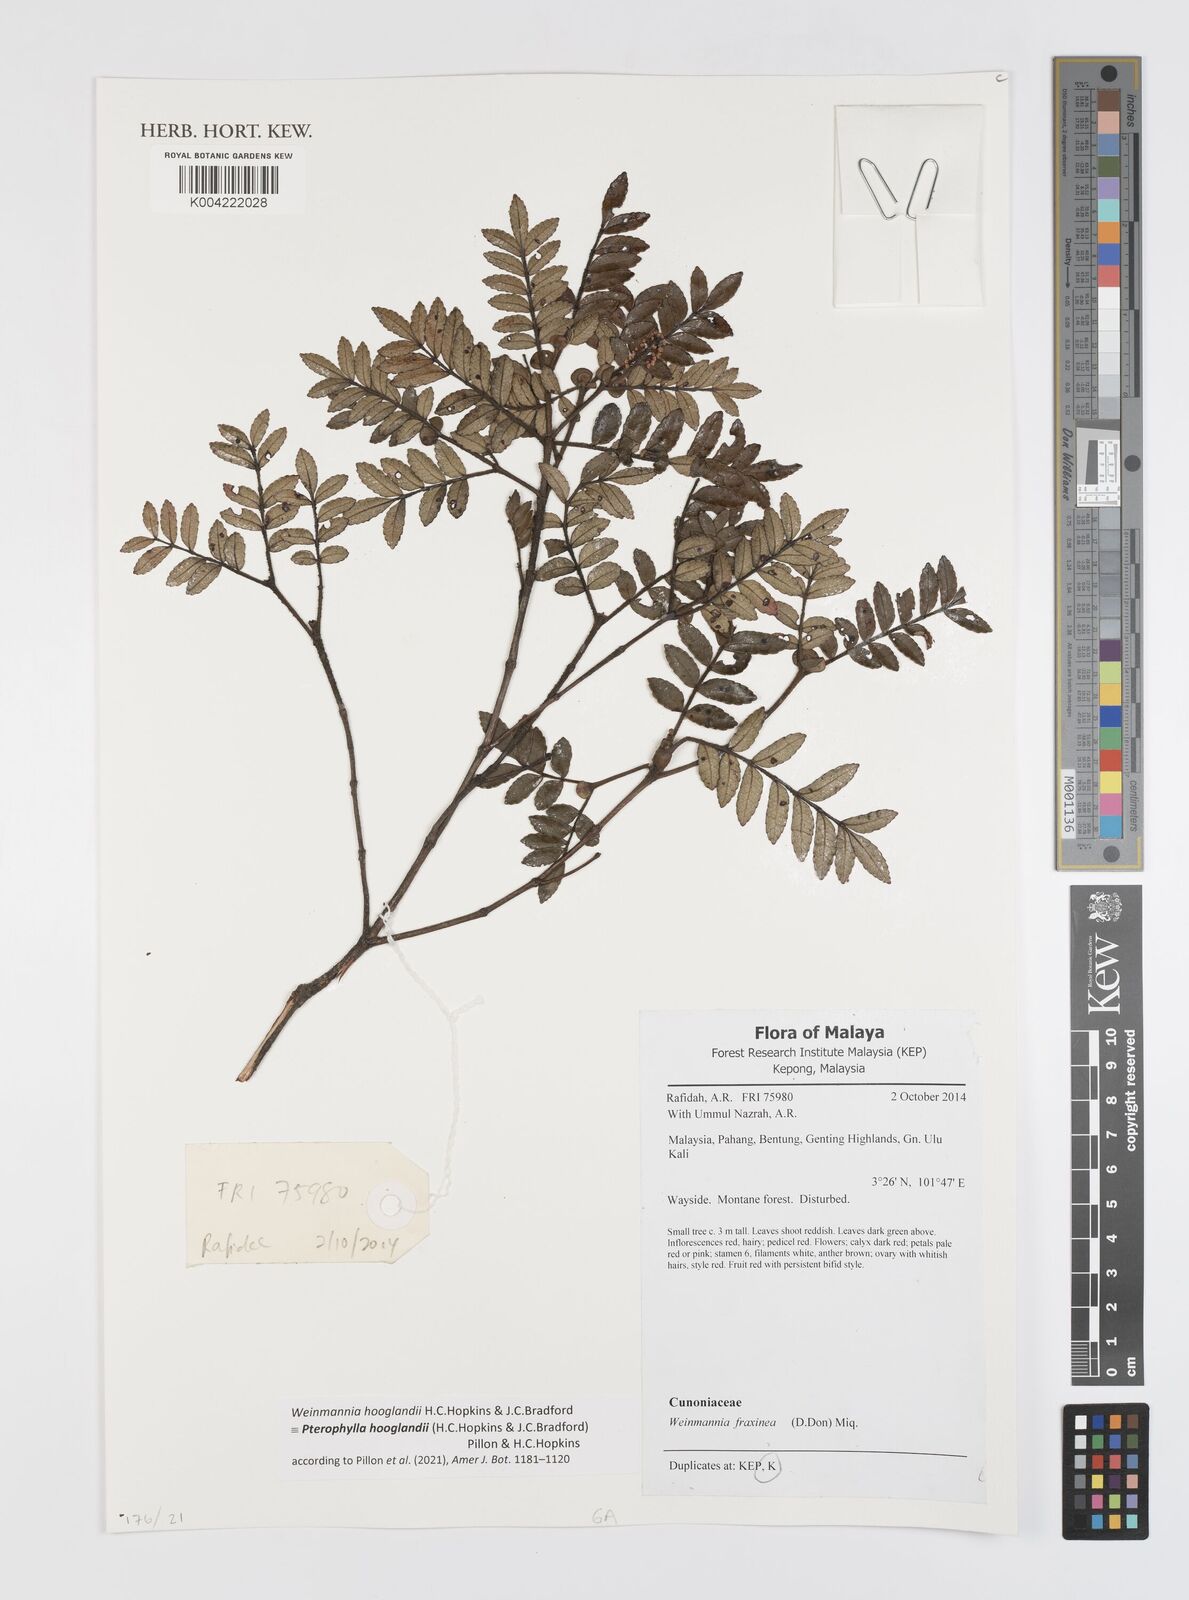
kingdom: Plantae
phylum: Tracheophyta
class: Magnoliopsida
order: Oxalidales
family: Cunoniaceae
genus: Pterophylla
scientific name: Pterophylla
